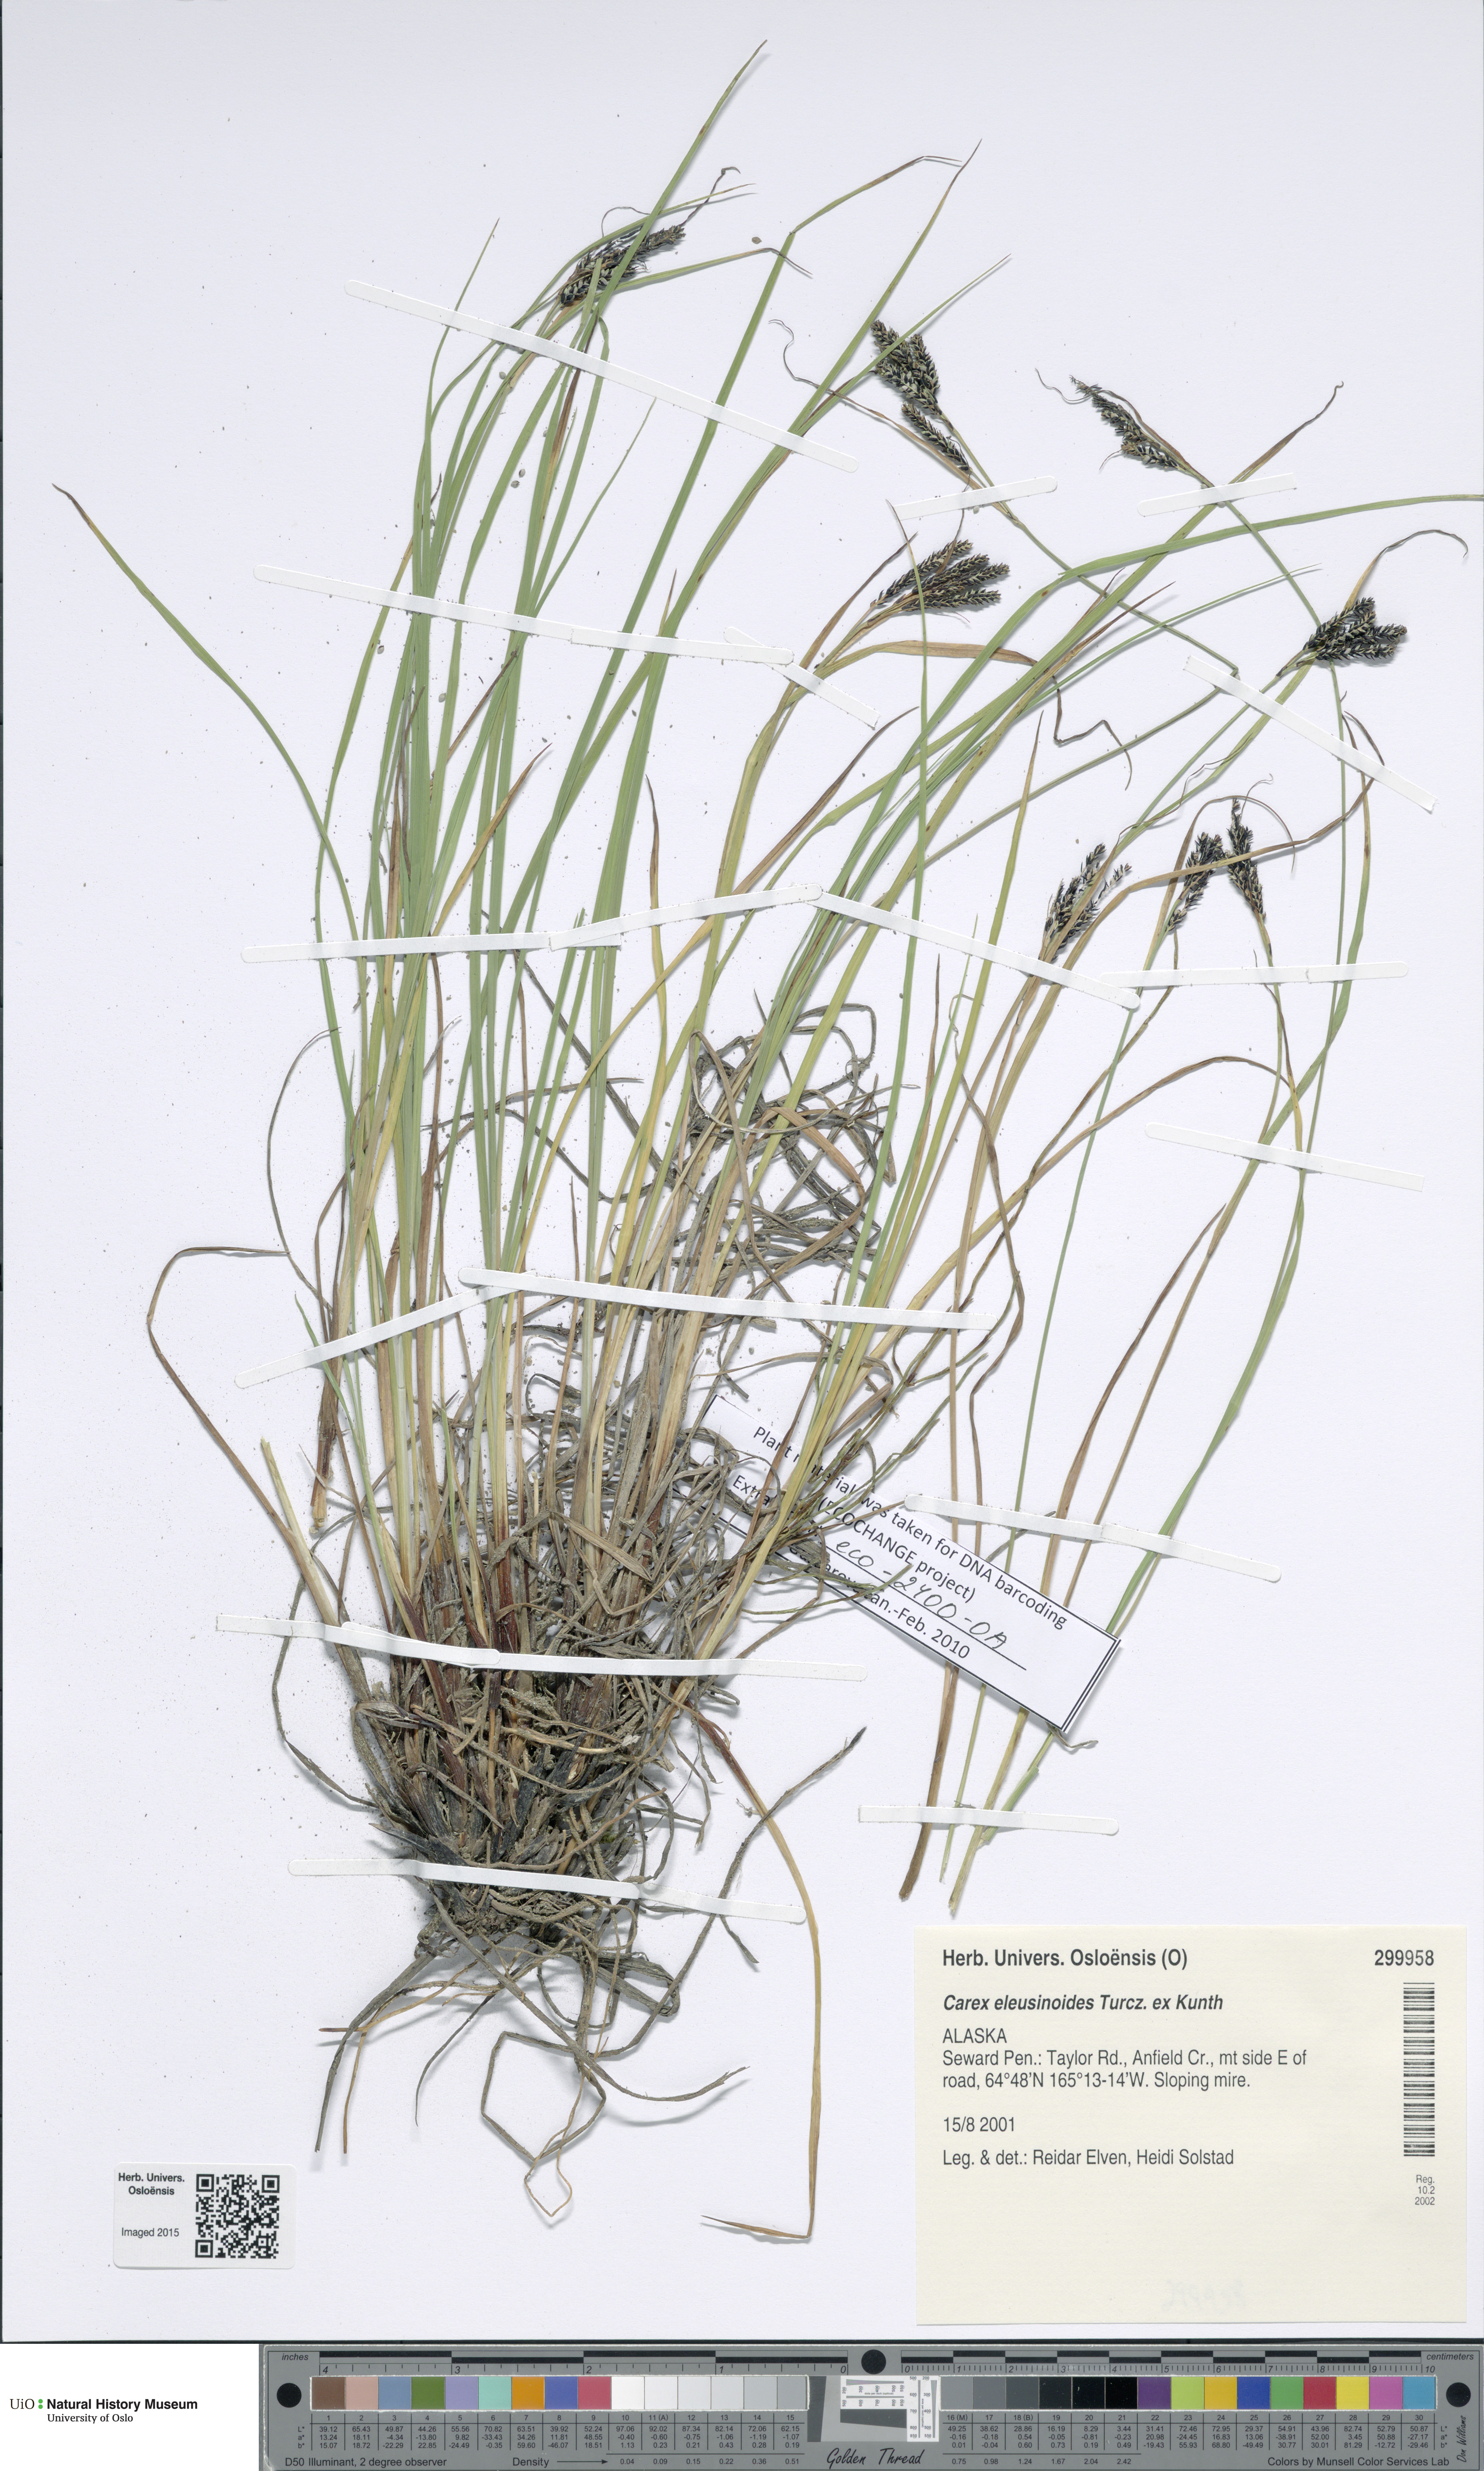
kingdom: Plantae
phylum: Tracheophyta
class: Liliopsida
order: Poales
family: Cyperaceae
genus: Carex
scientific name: Carex eleusinoides
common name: Goosegrass sedge
